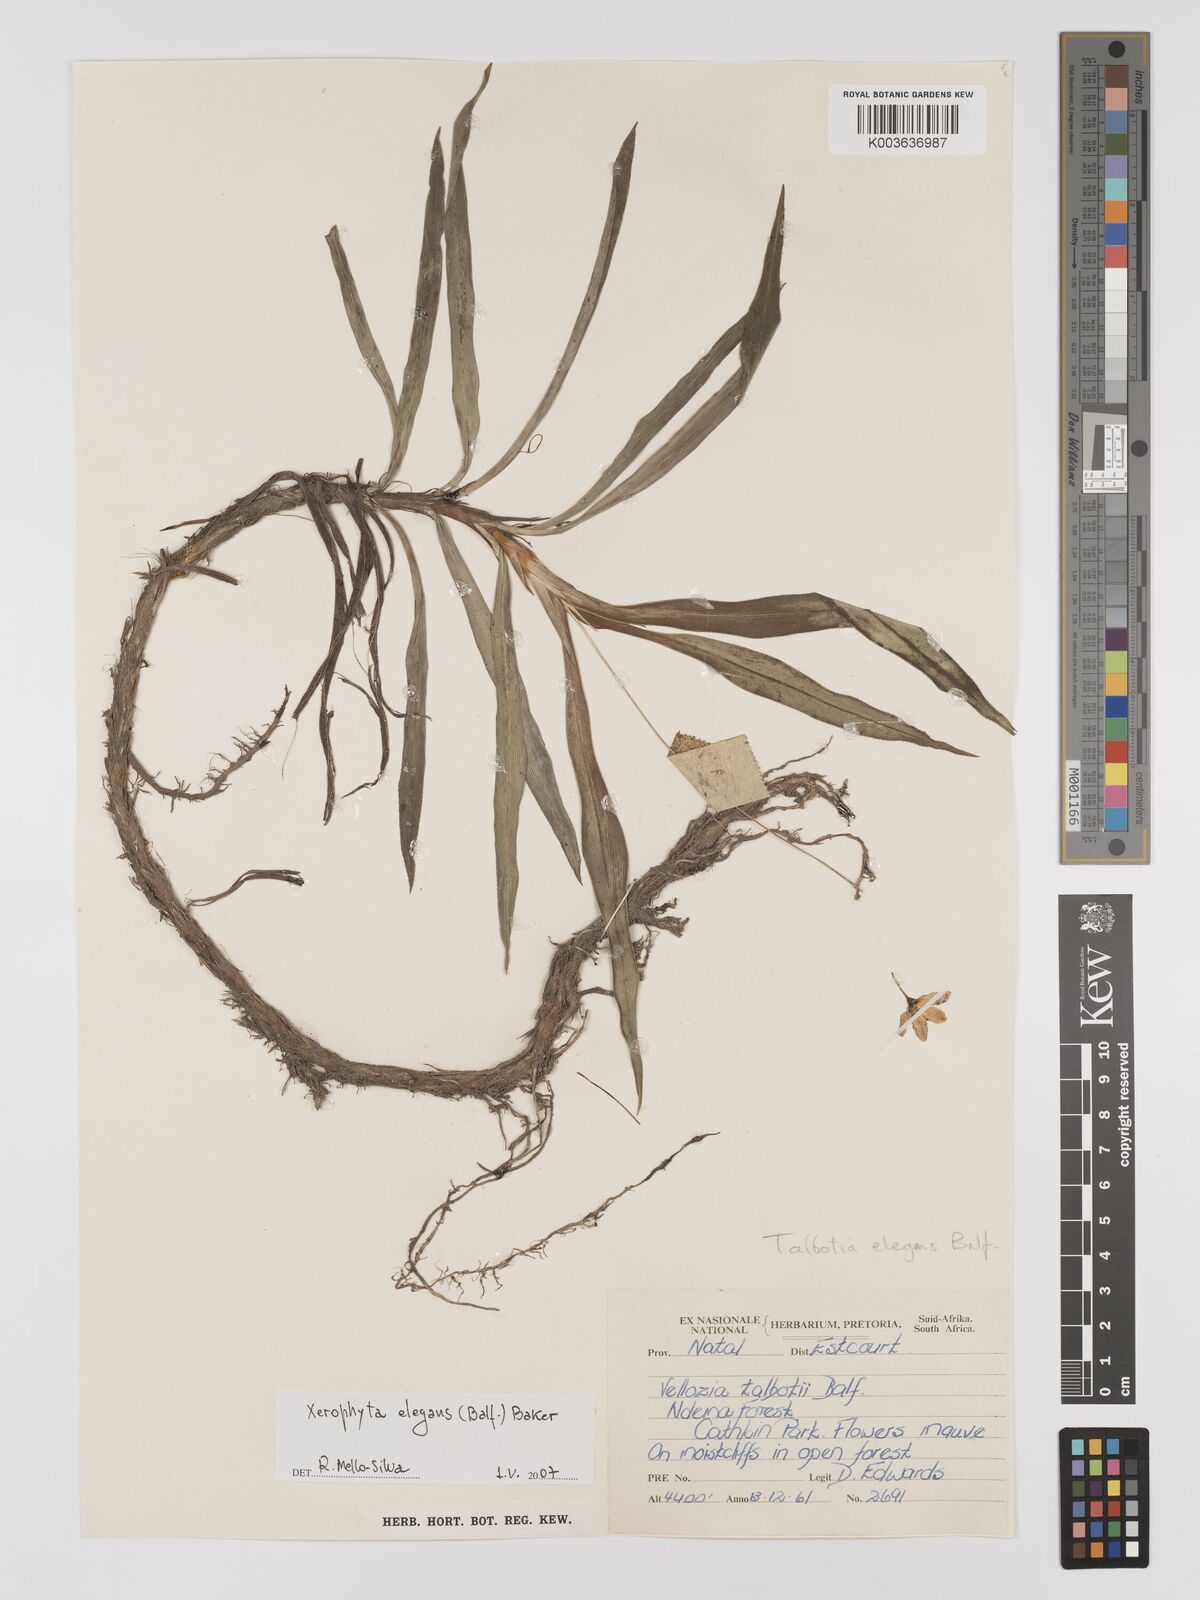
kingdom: Plantae
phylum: Tracheophyta
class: Liliopsida
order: Pandanales
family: Velloziaceae
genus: Xerophyta
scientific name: Xerophyta elegans
